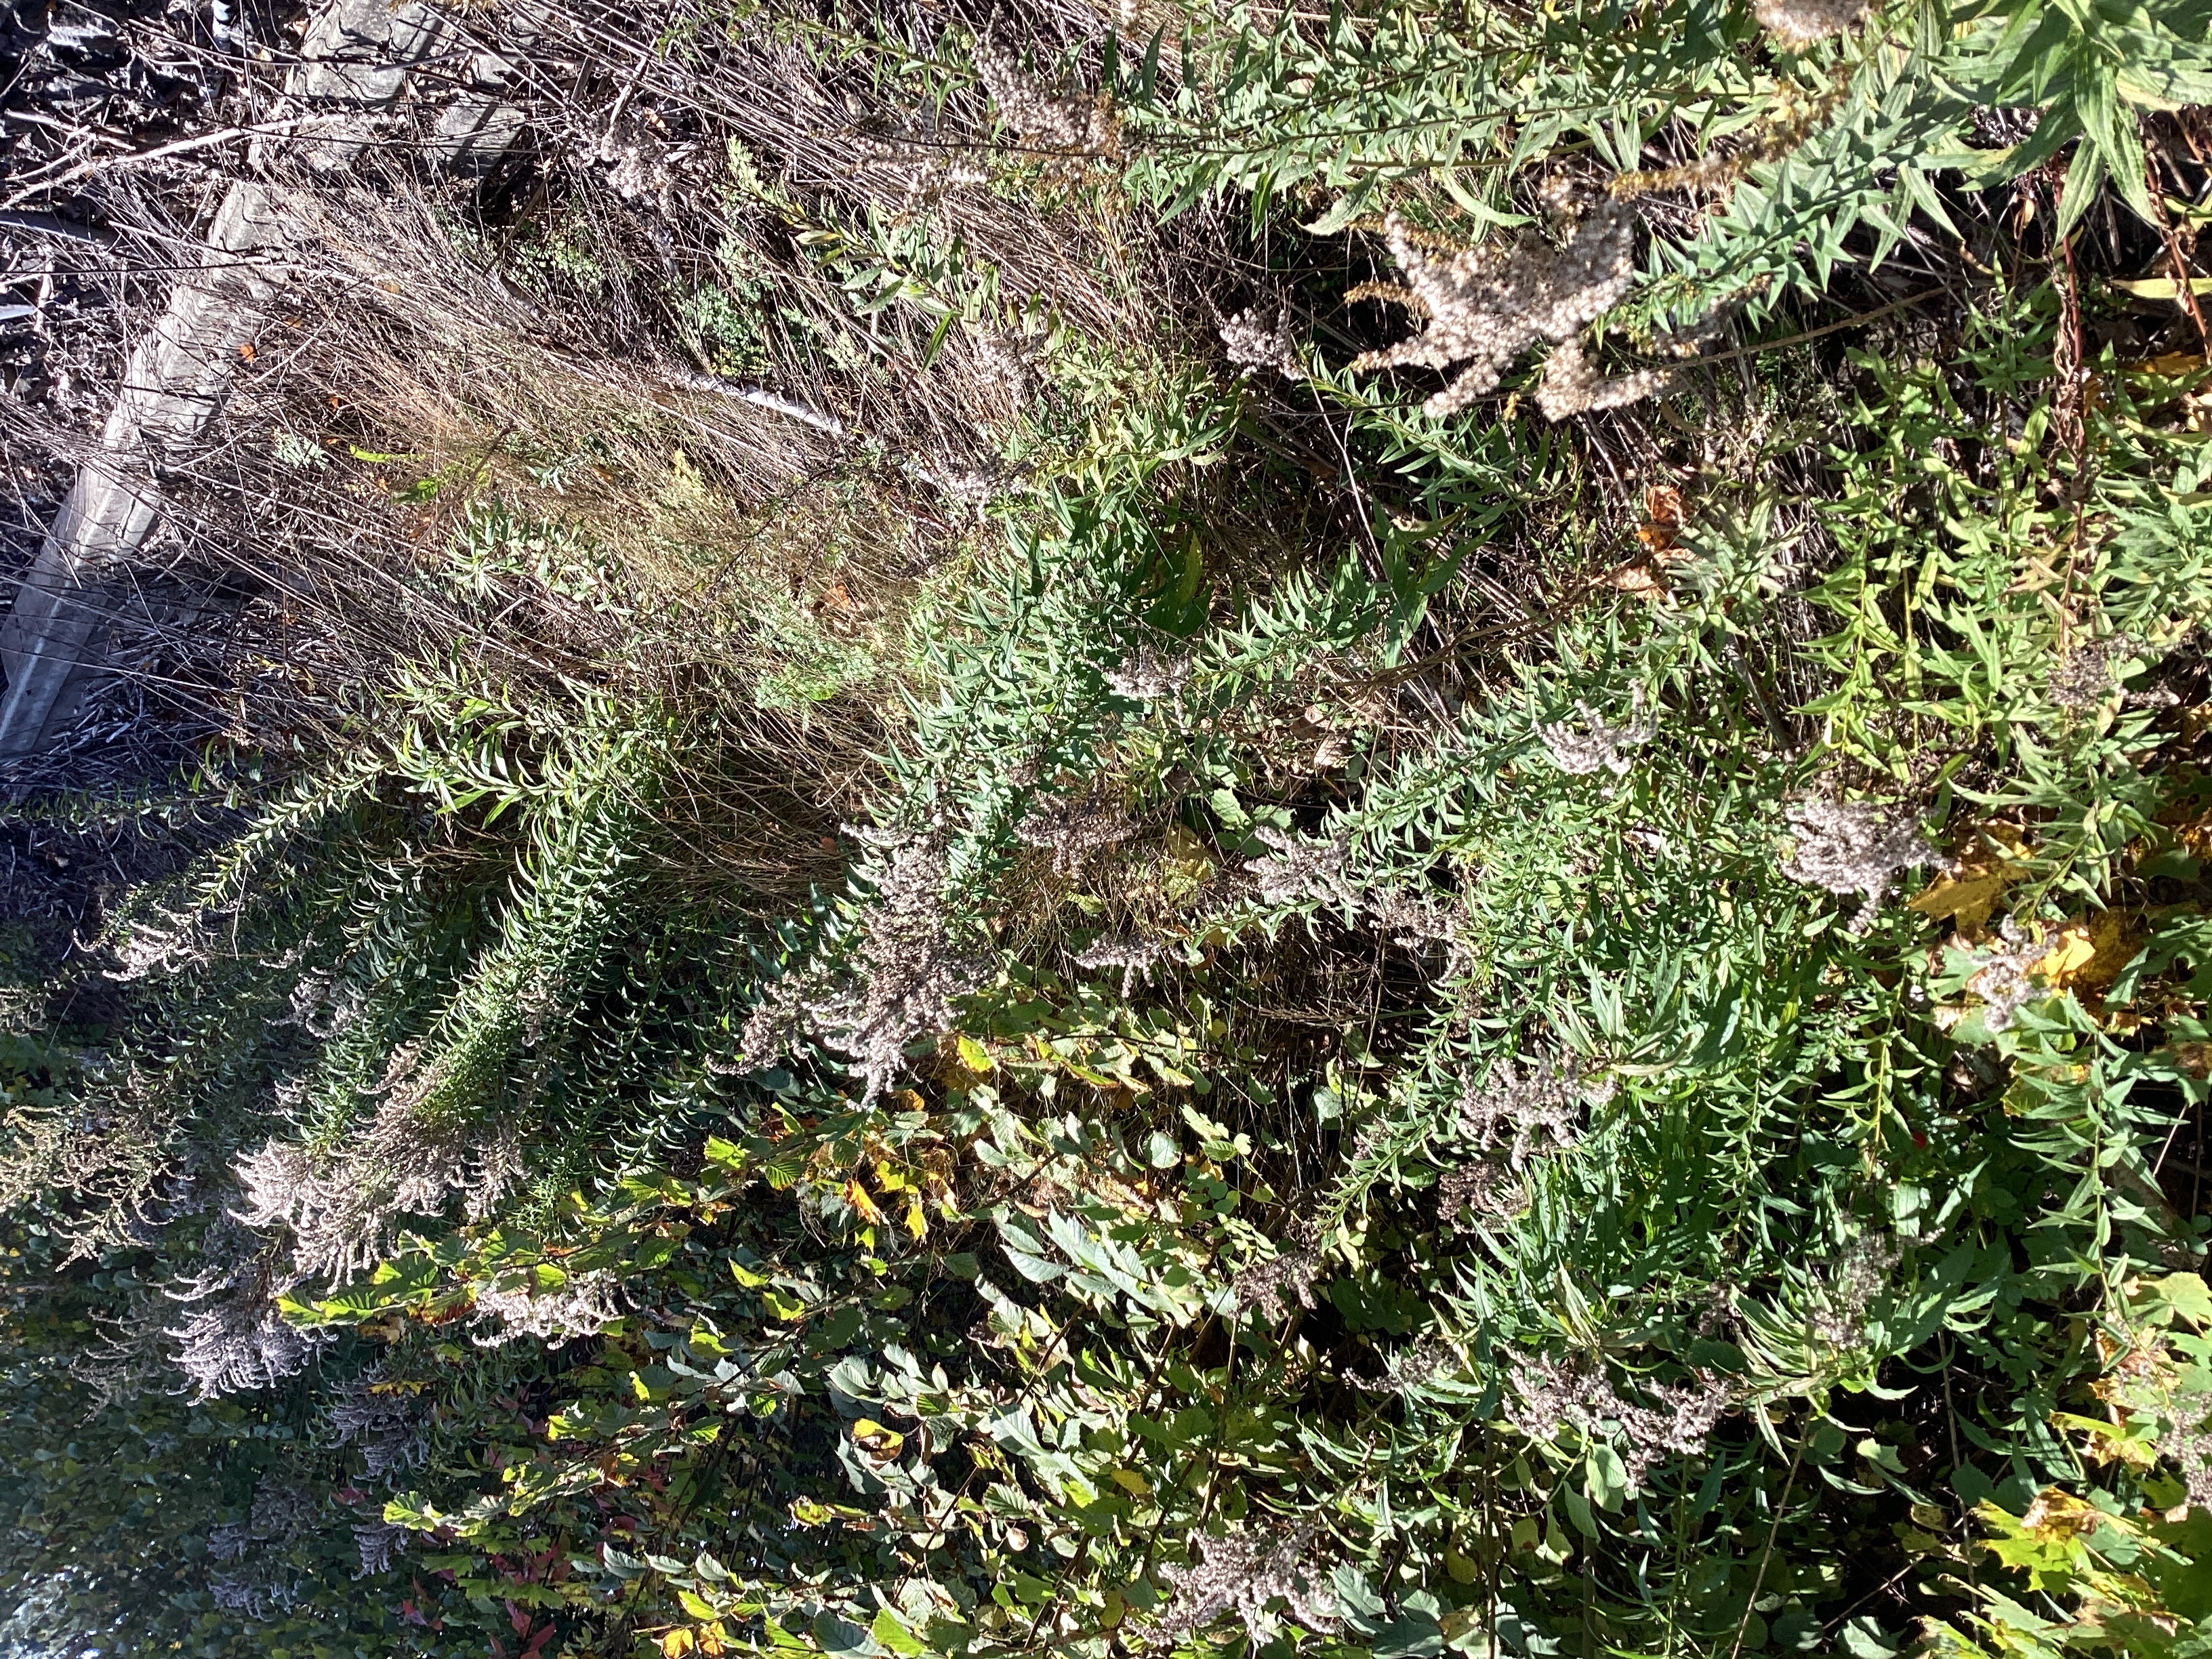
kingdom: Plantae
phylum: Tracheophyta
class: Magnoliopsida
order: Asterales
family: Asteraceae
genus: Solidago
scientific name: Solidago canadensis
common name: kanadagullris
